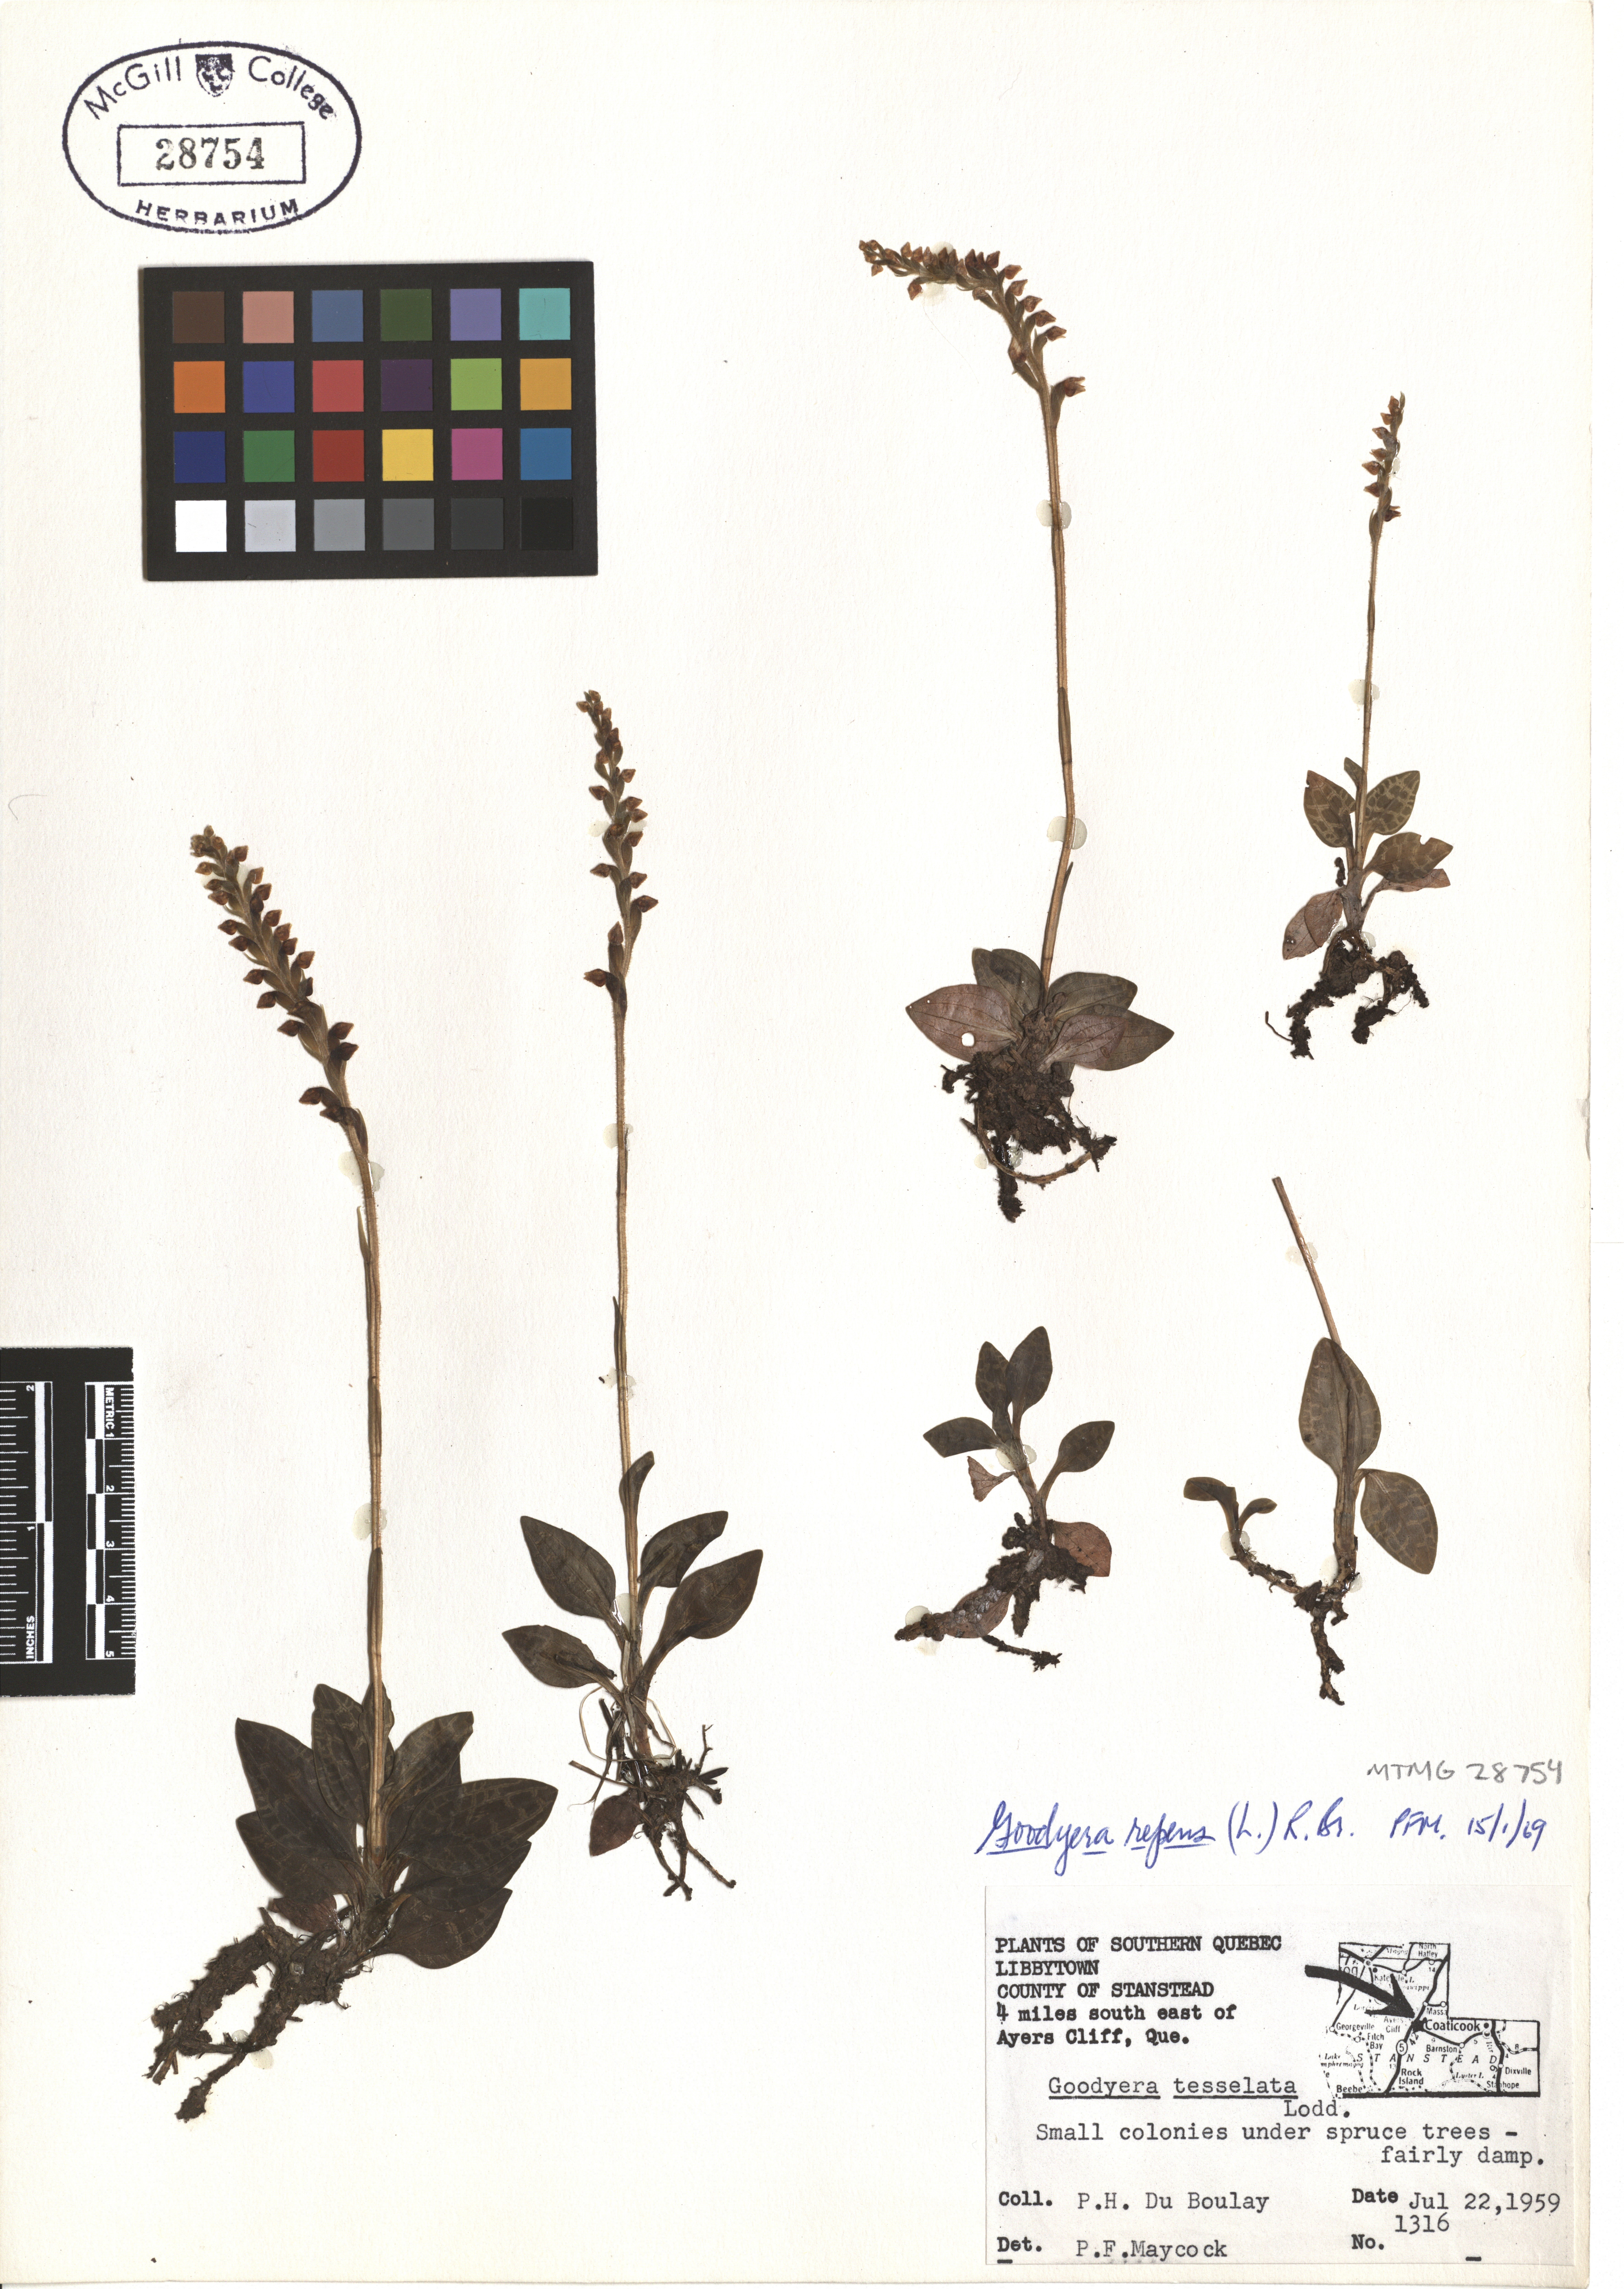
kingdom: Plantae
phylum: Tracheophyta
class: Liliopsida
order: Asparagales
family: Orchidaceae
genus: Goodyera
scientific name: Goodyera repens
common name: Creeping lady's-tresses
